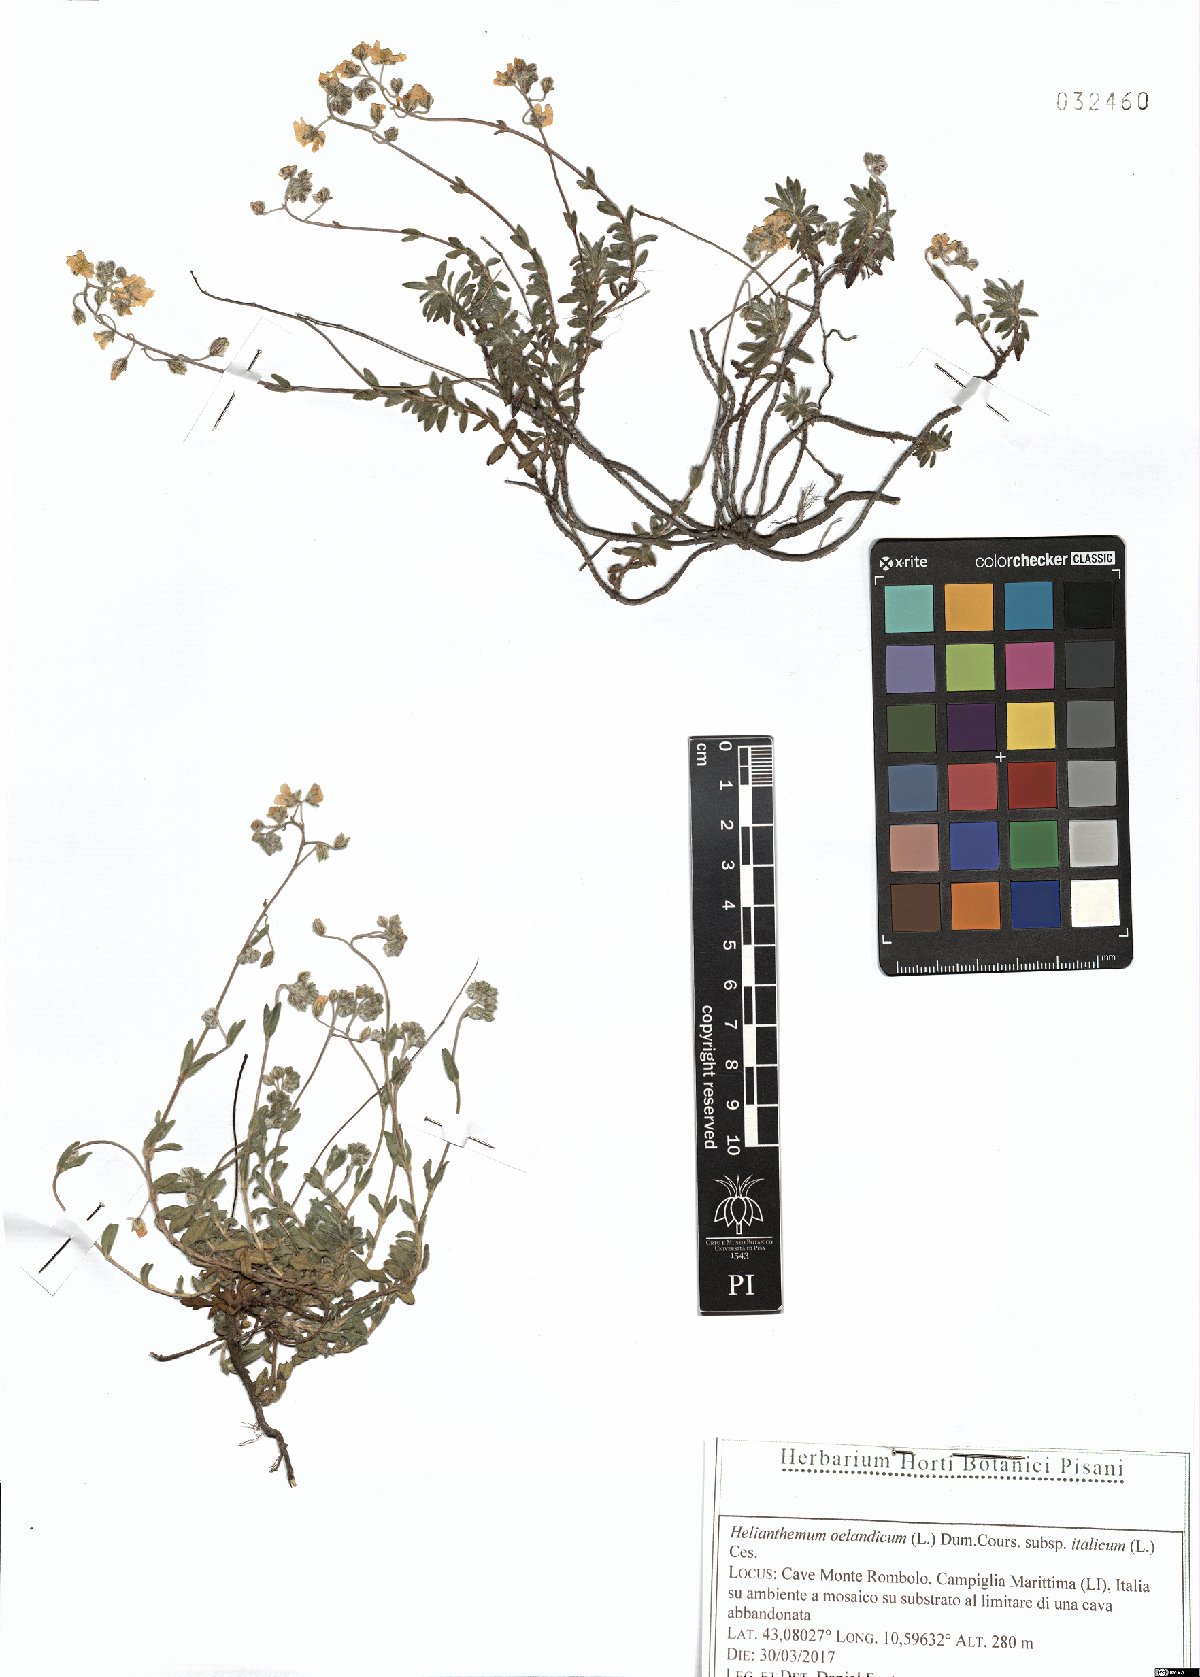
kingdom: Plantae
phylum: Tracheophyta
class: Magnoliopsida
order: Malvales
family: Cistaceae
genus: Helianthemum
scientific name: Helianthemum italicum
